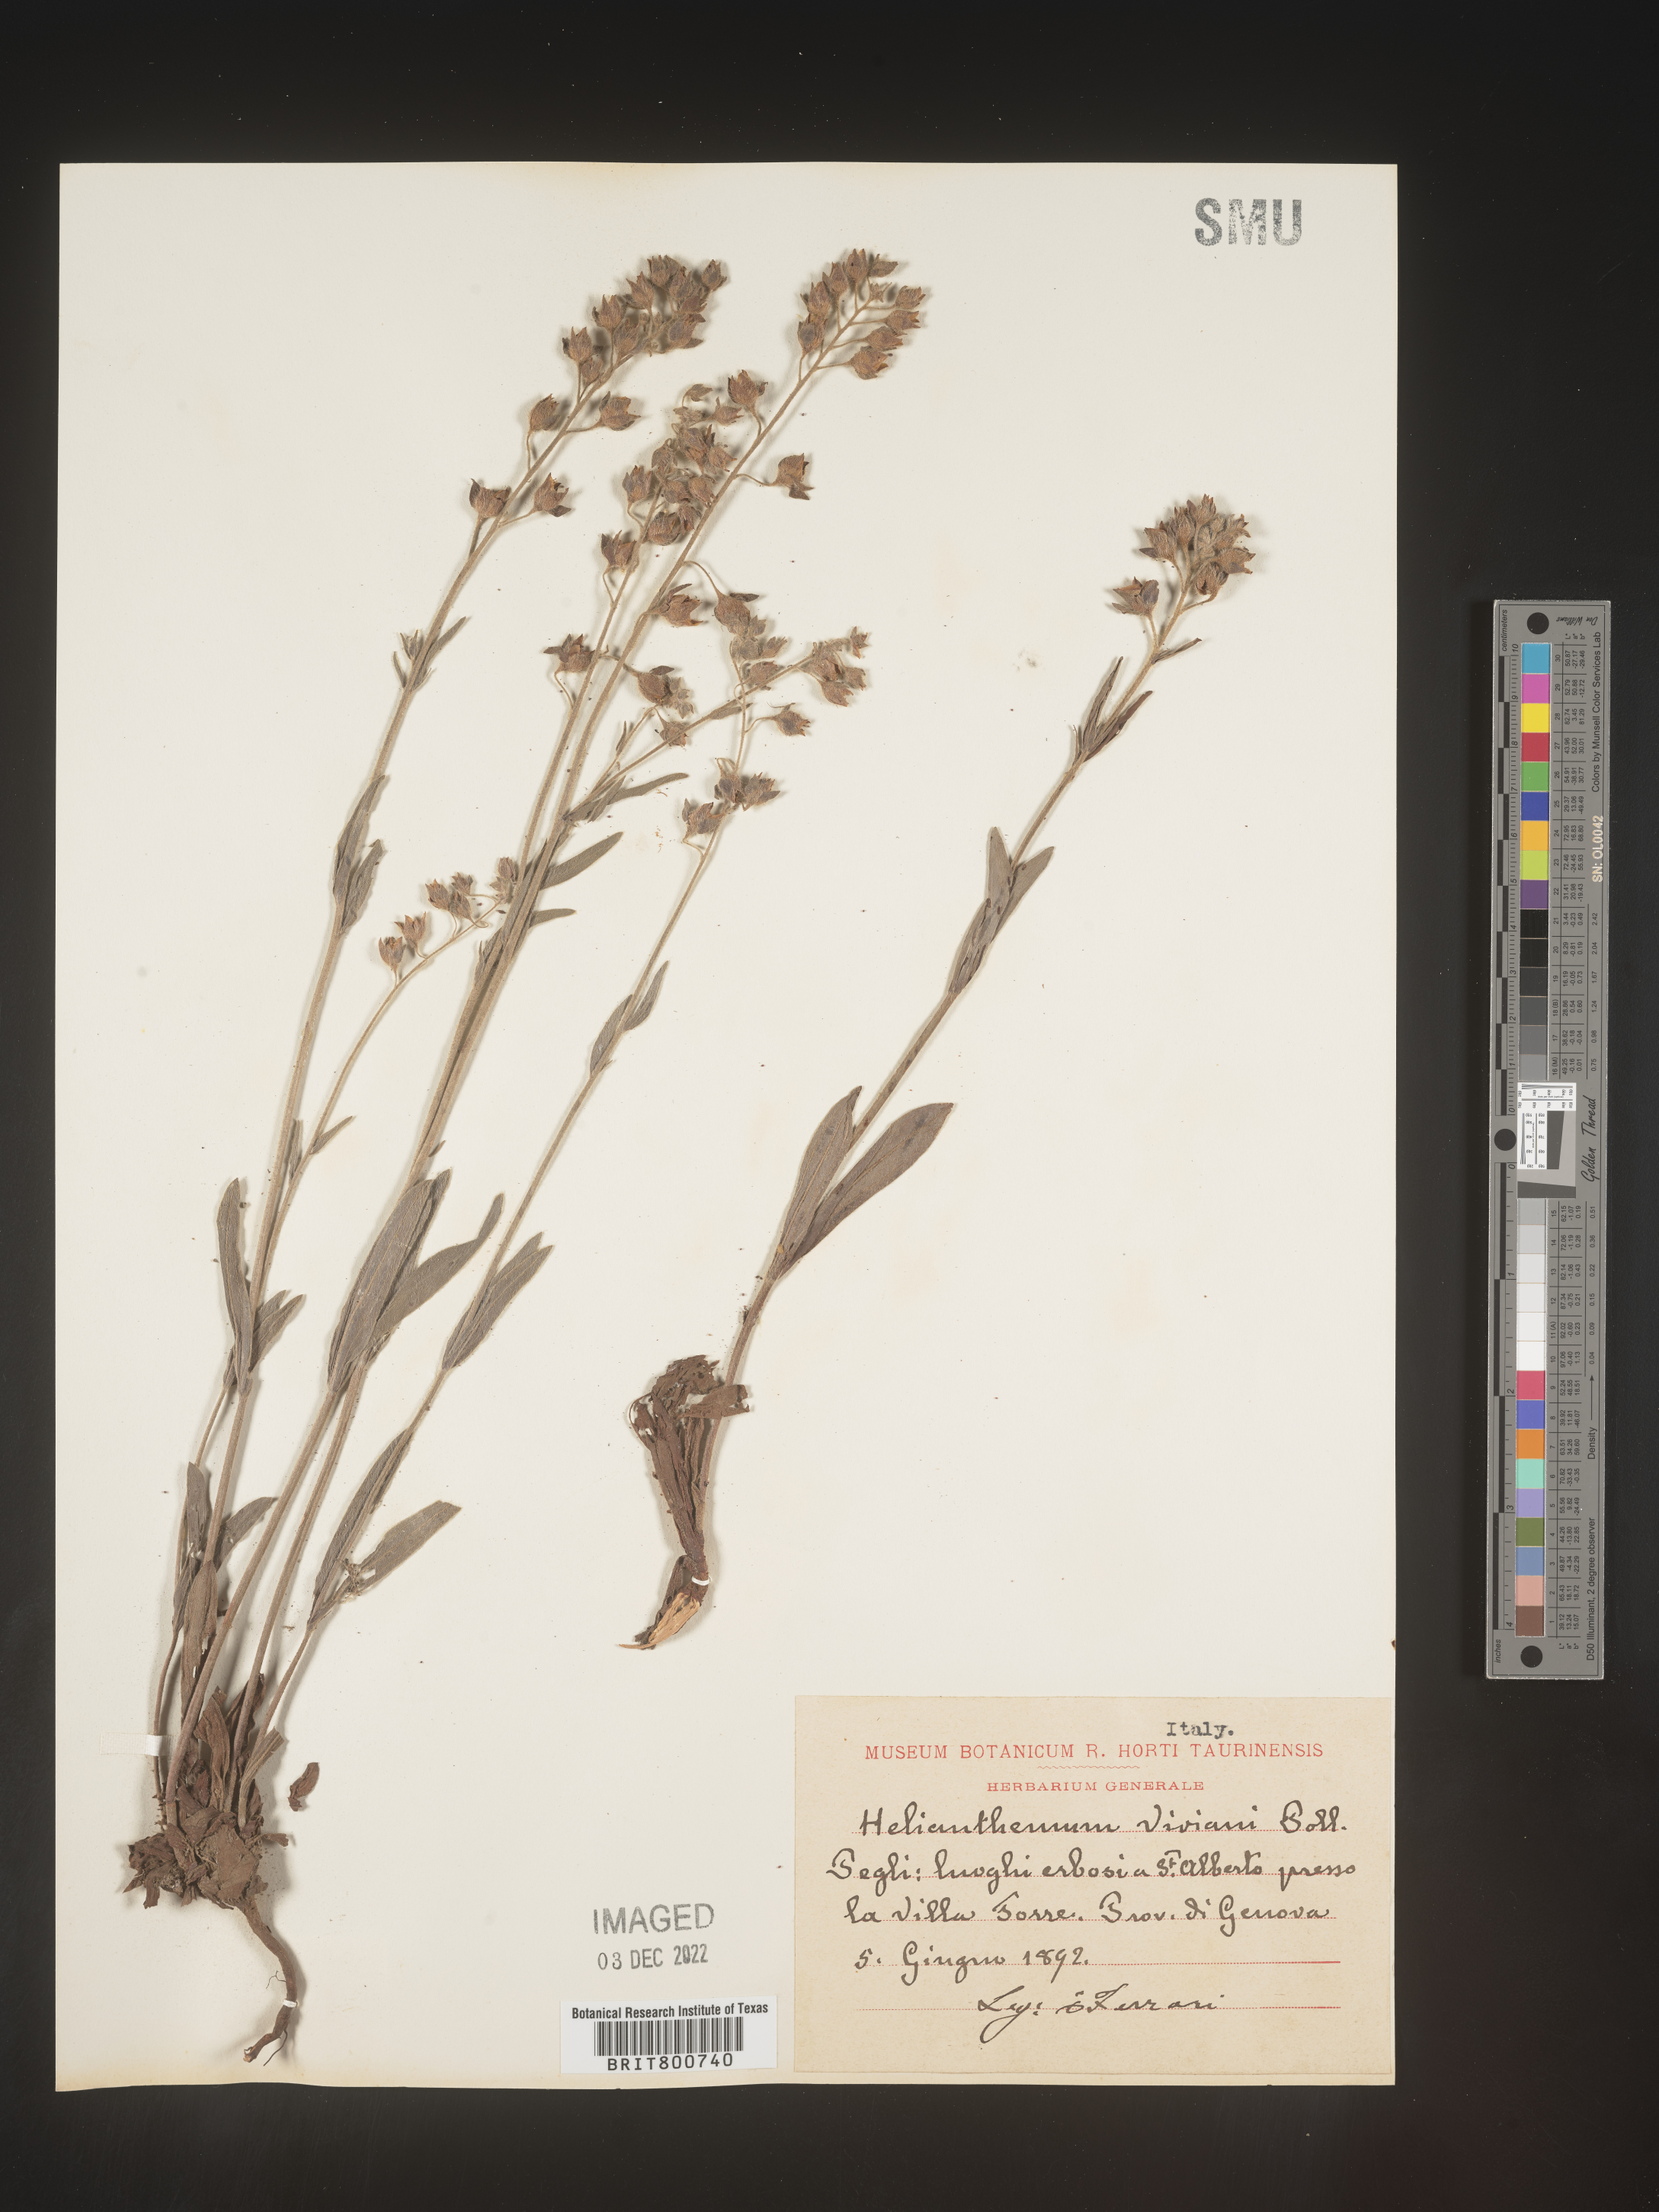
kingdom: Plantae
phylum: Tracheophyta
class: Magnoliopsida
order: Malvales
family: Cistaceae
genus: Helianthemum
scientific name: Helianthemum
